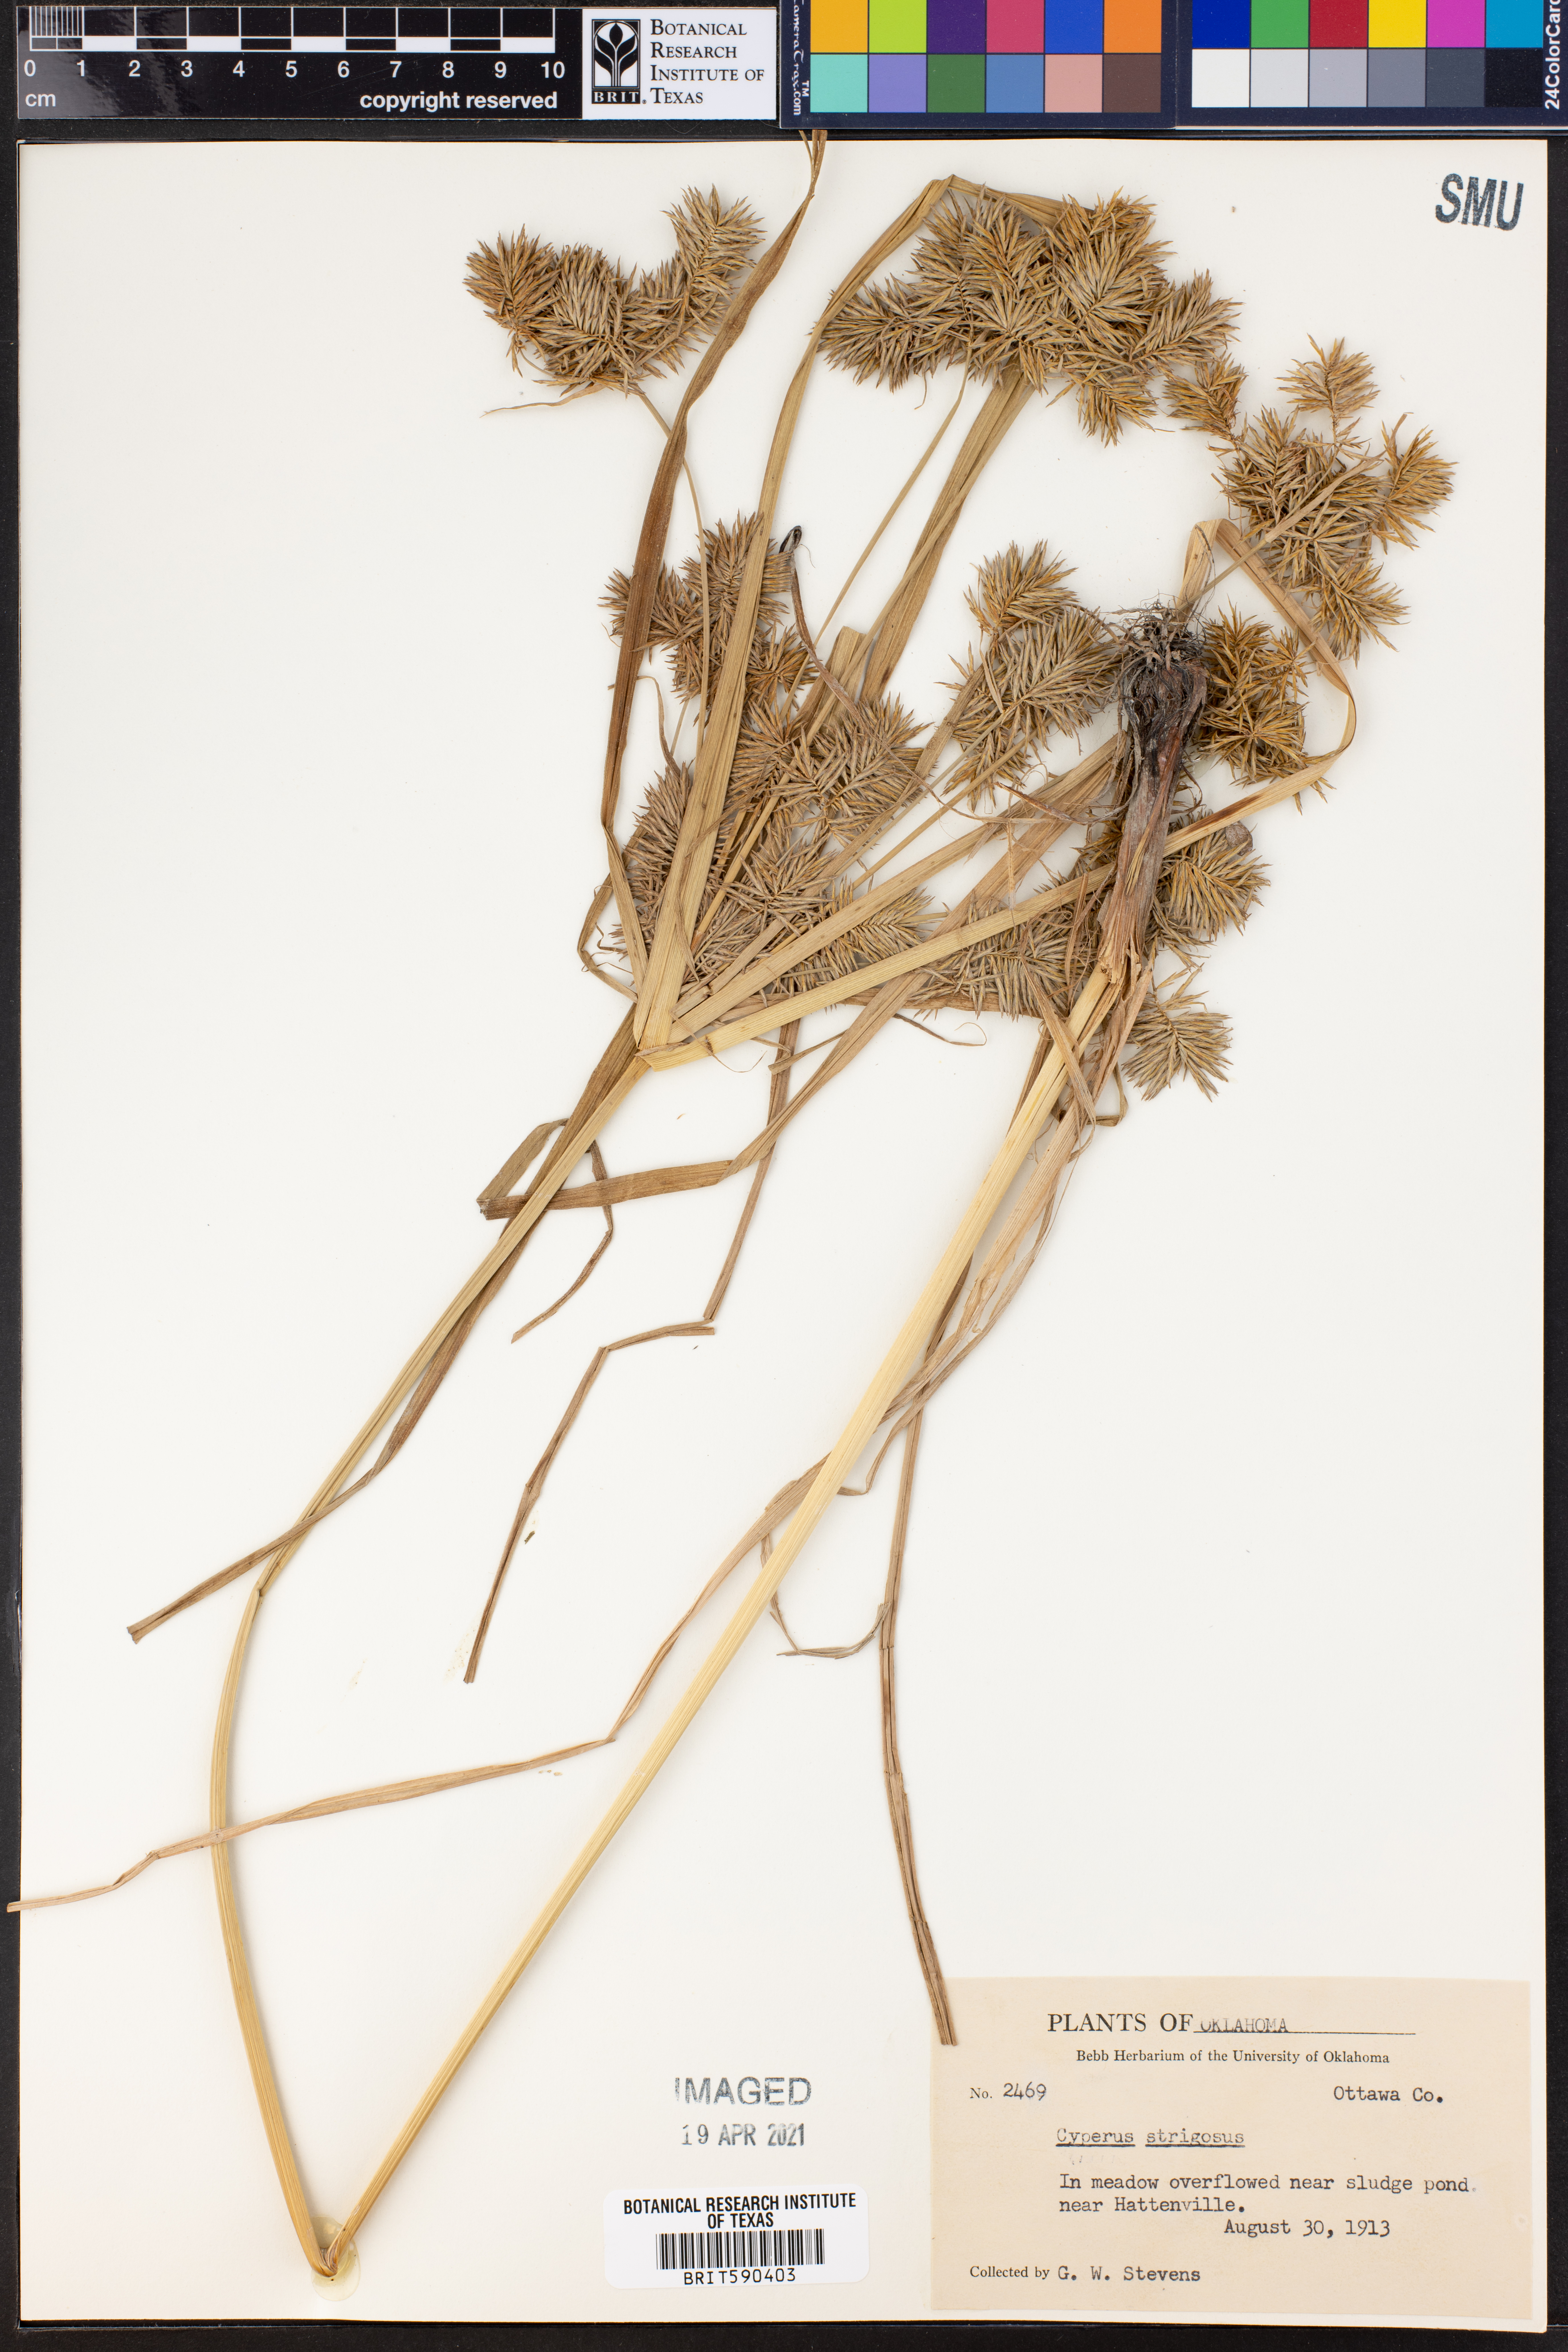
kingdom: Plantae
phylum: Tracheophyta
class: Liliopsida
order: Poales
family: Cyperaceae
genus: Cyperus
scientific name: Cyperus strigosus
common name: False nutsedge
